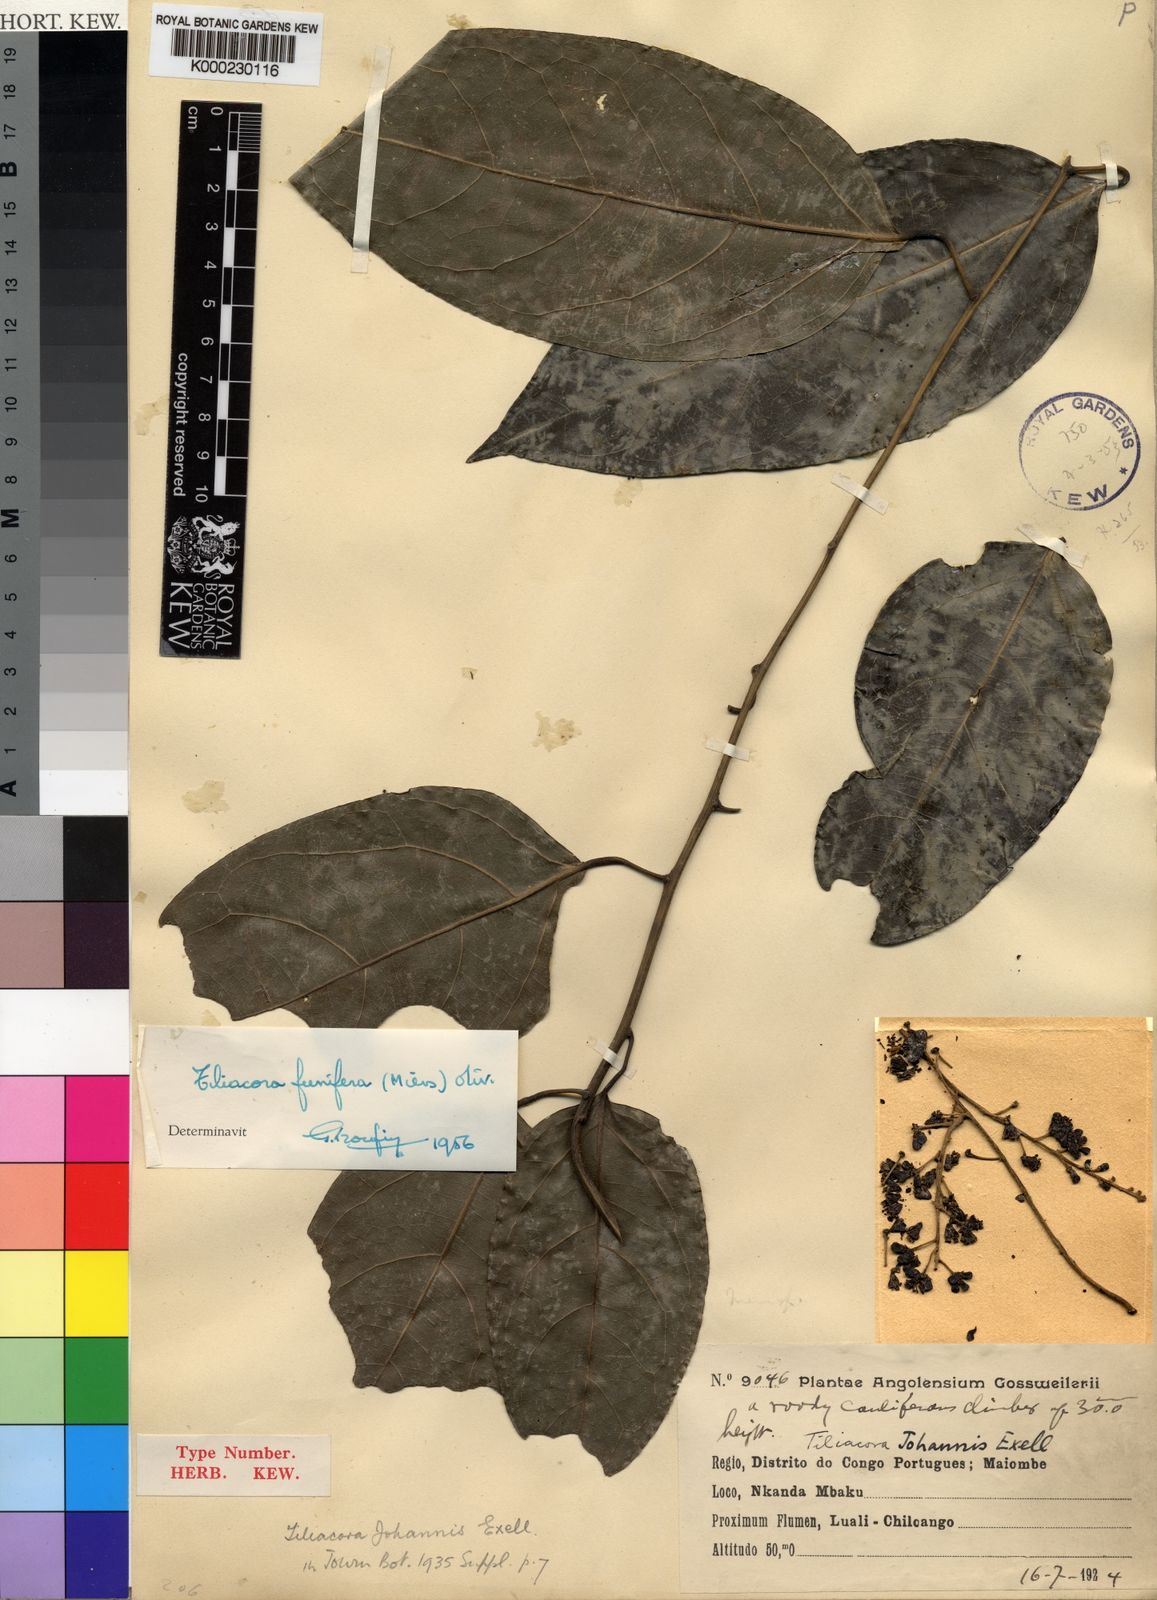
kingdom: Plantae
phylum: Tracheophyta
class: Magnoliopsida
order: Ranunculales
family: Menispermaceae
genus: Tiliacora
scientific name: Tiliacora funifera
